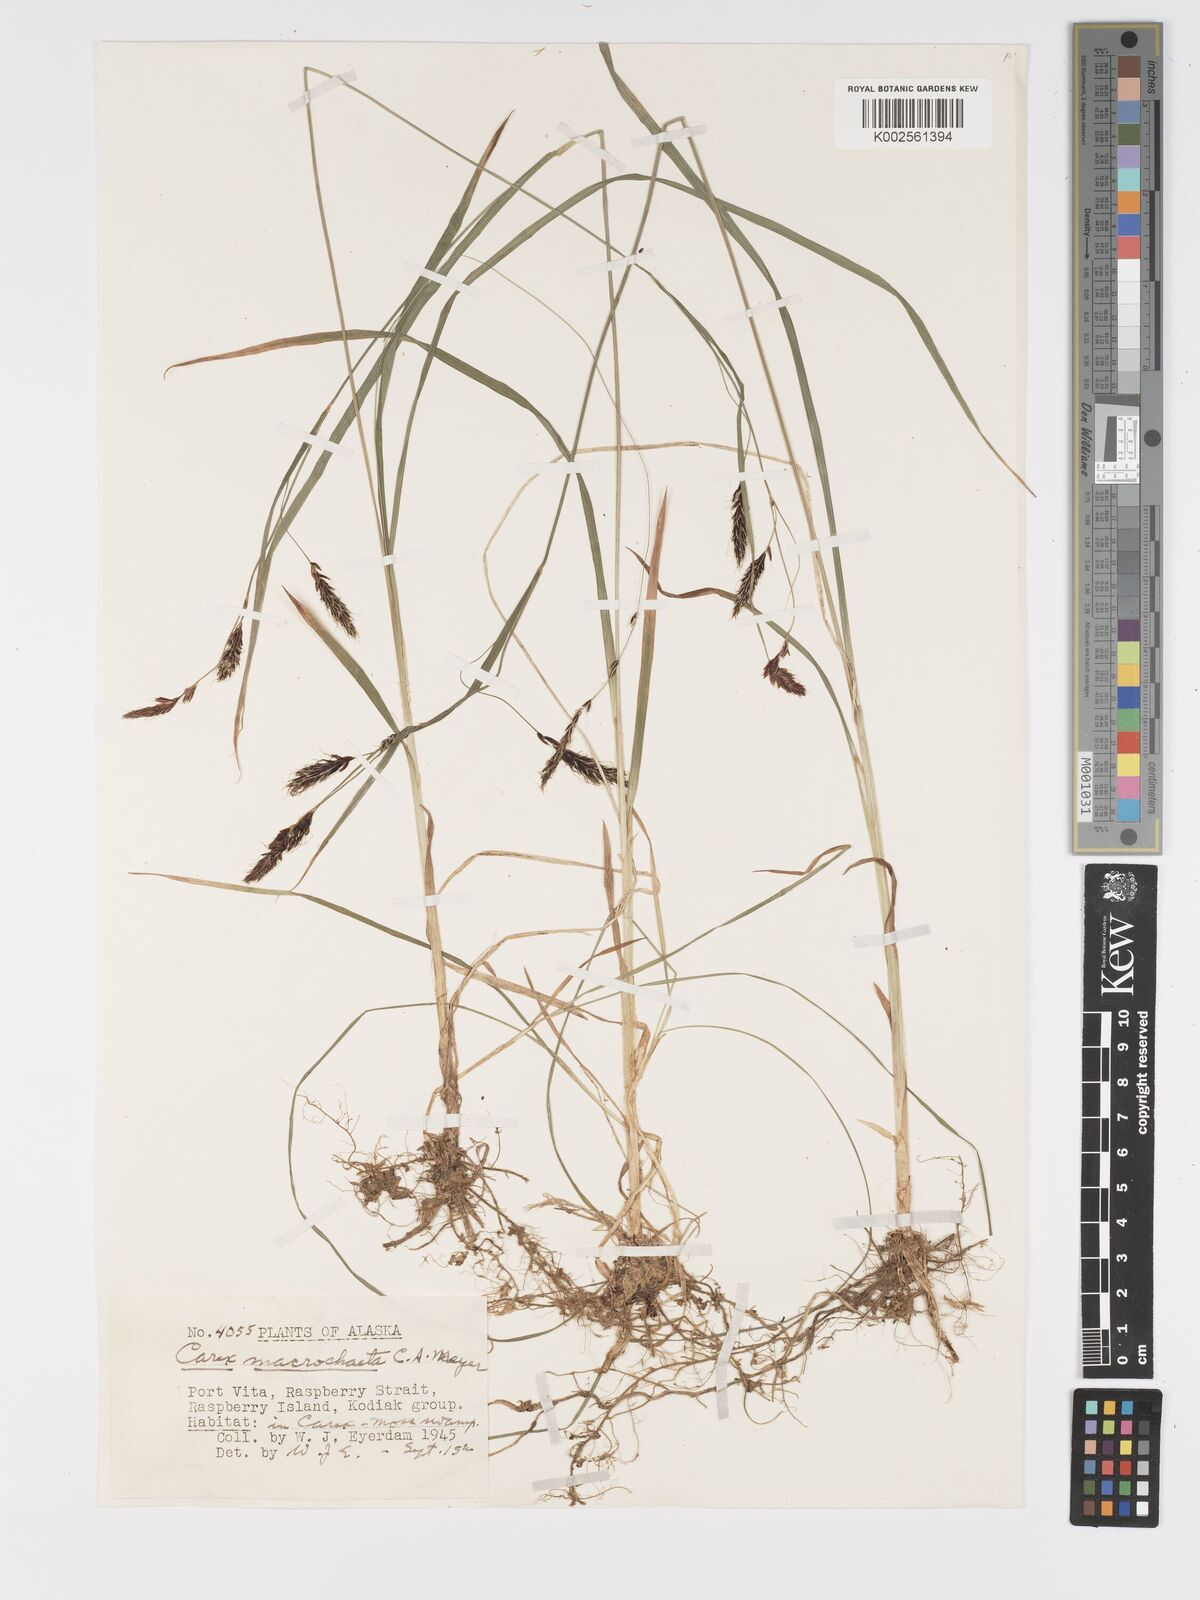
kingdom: Plantae
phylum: Tracheophyta
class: Liliopsida
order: Poales
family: Cyperaceae
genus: Carex
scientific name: Carex macrochaeta
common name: Alaska large awn sedge
